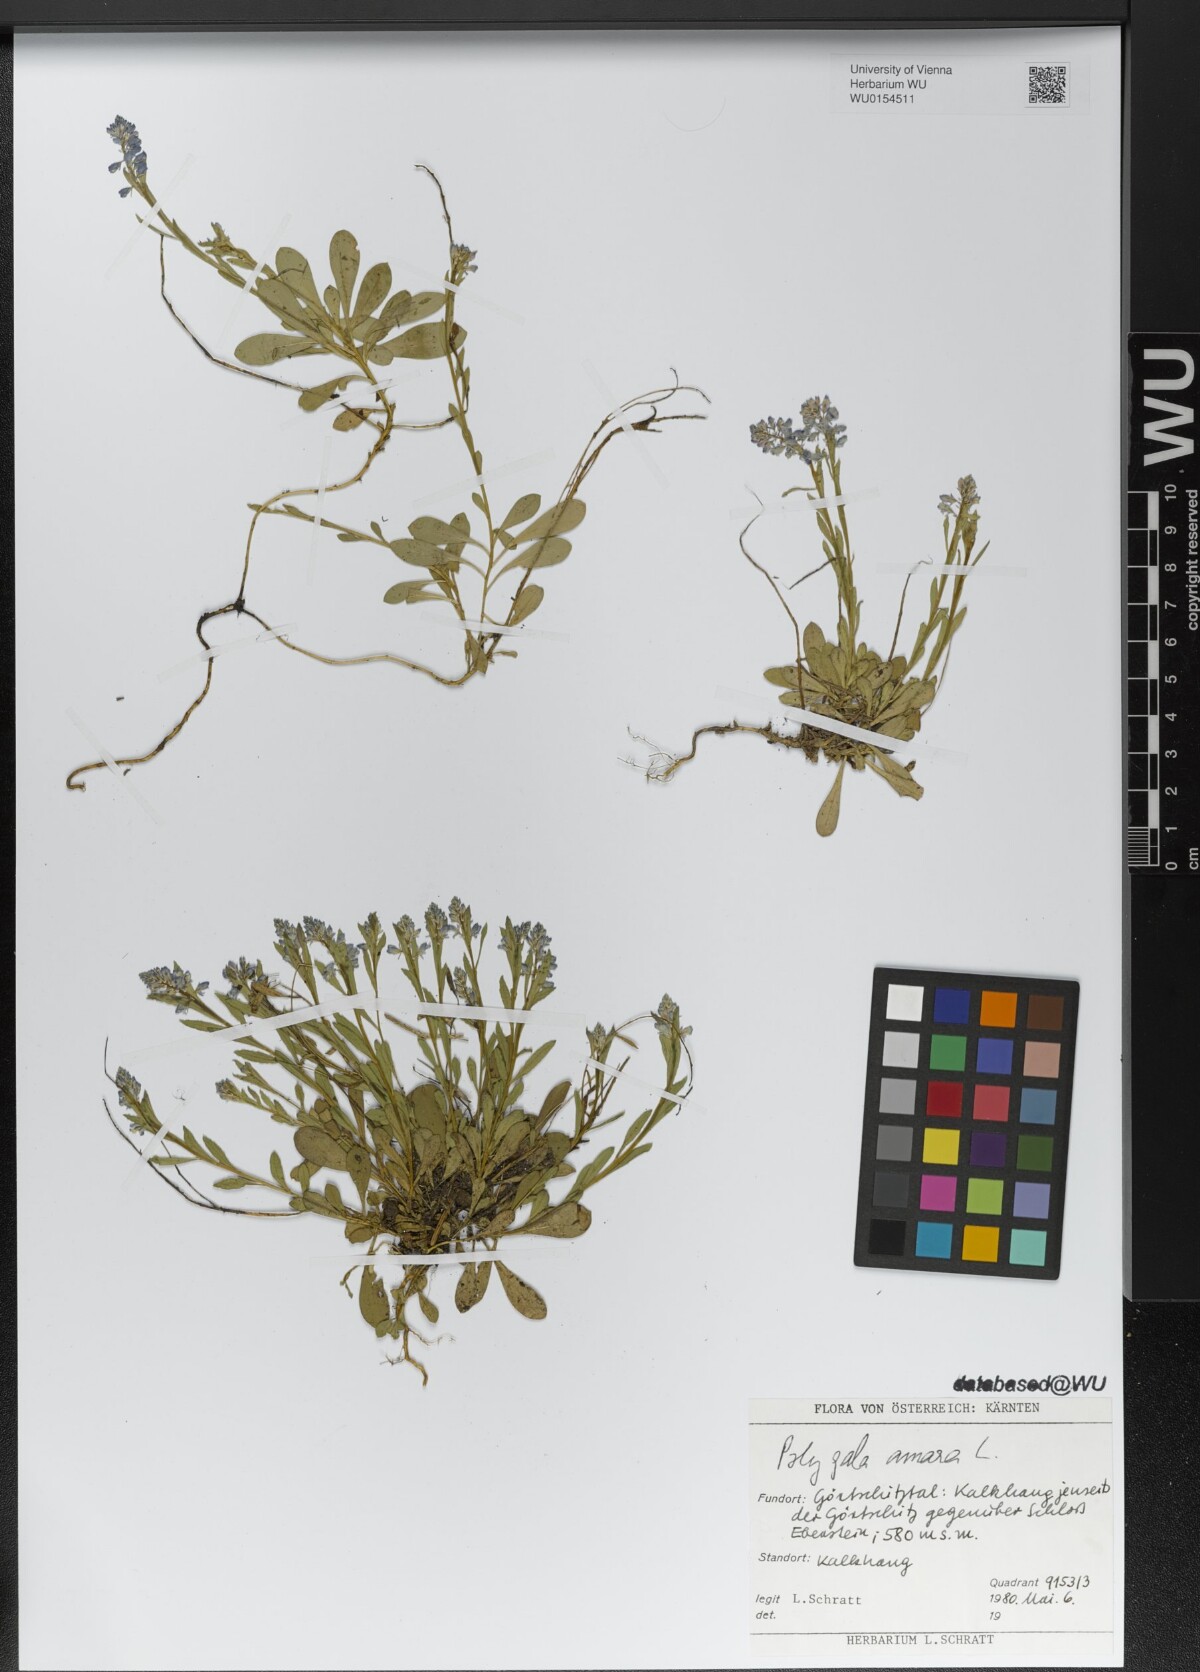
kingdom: Plantae
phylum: Tracheophyta
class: Magnoliopsida
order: Fabales
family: Polygalaceae
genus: Polygala
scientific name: Polygala amara
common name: Milkwort
